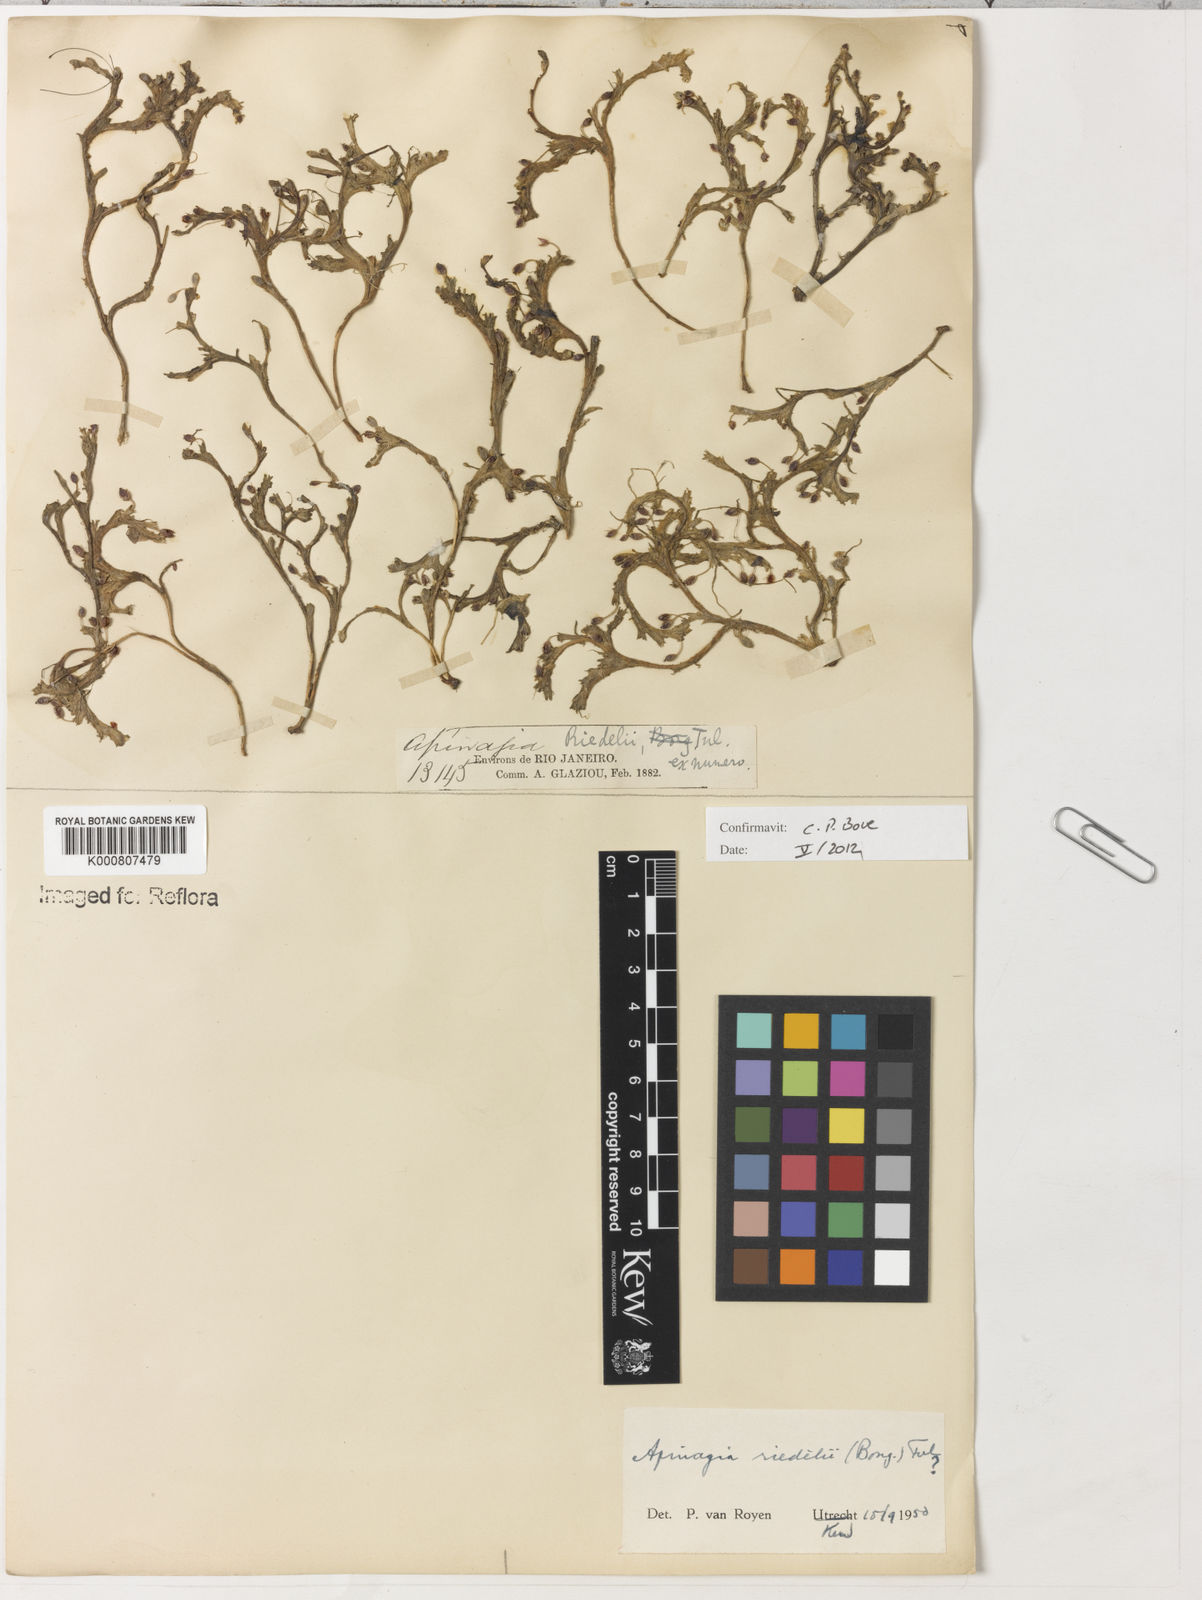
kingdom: Plantae
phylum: Tracheophyta
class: Magnoliopsida
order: Malpighiales
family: Podostemaceae
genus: Apinagia
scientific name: Apinagia riedelii
